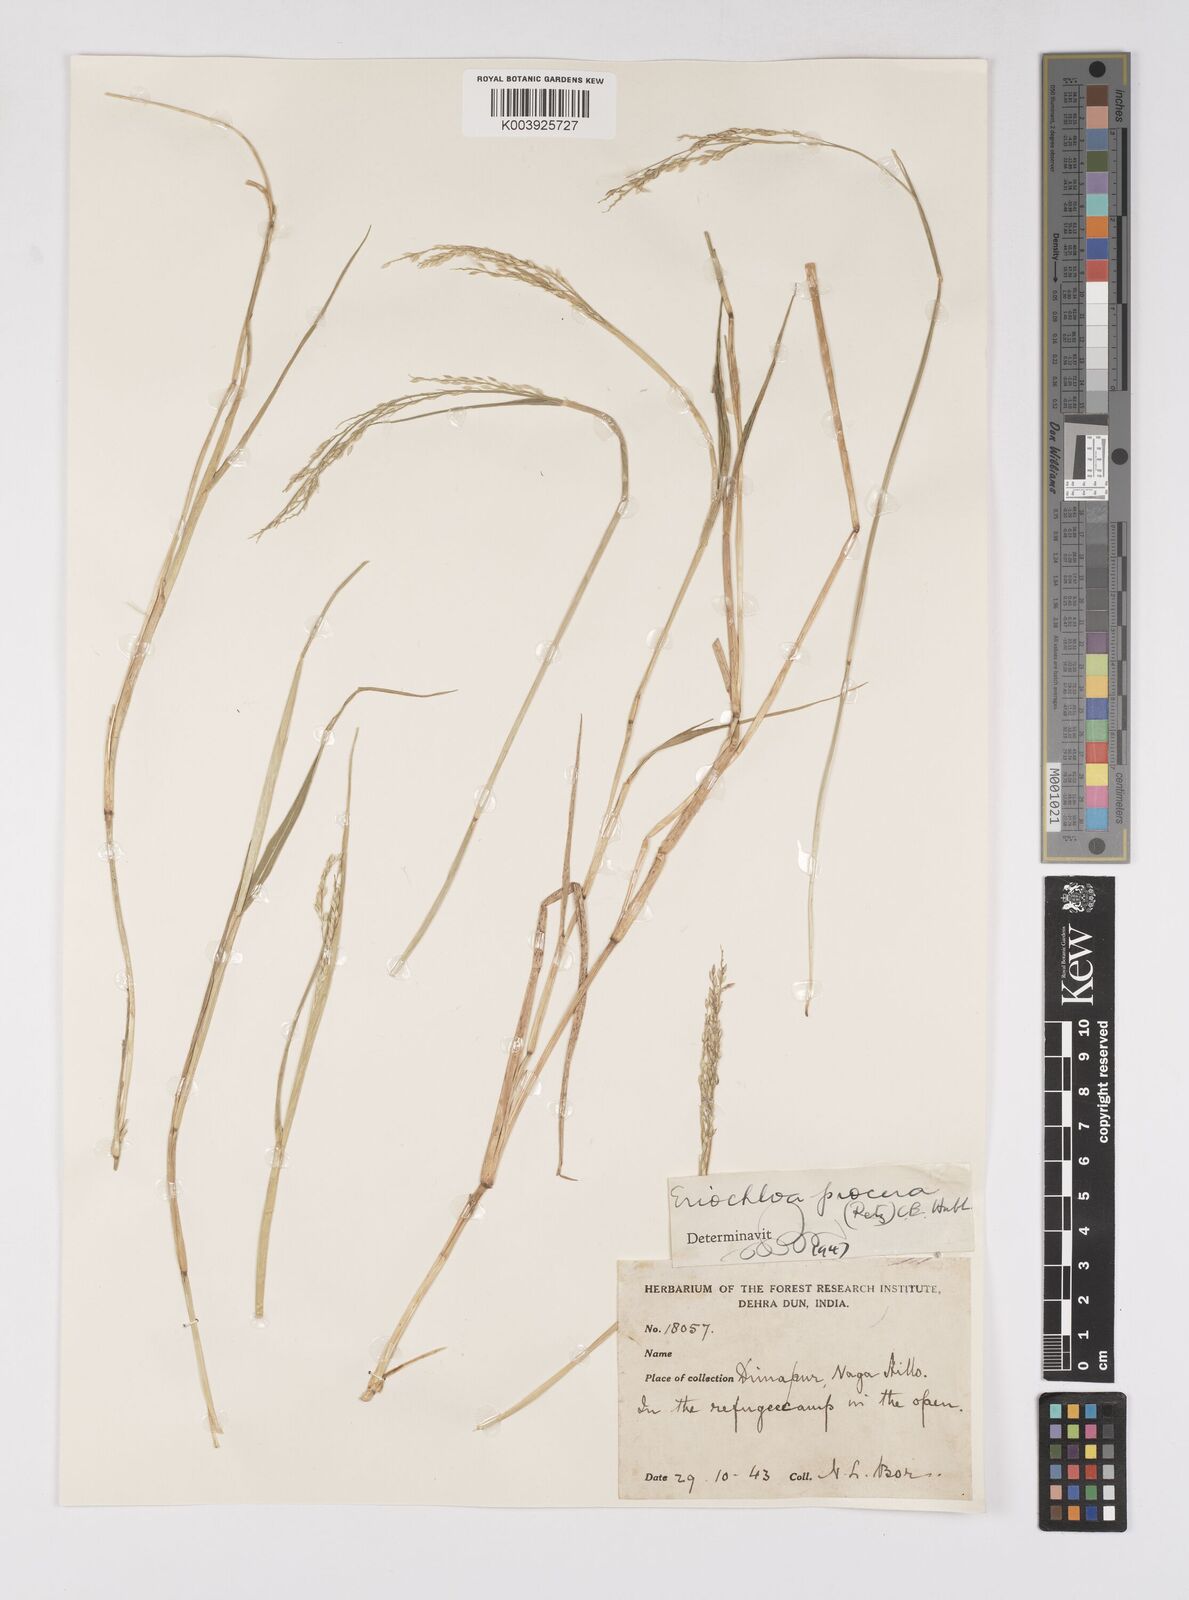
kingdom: Plantae
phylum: Tracheophyta
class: Liliopsida
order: Poales
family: Poaceae
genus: Eriochloa
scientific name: Eriochloa procera
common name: Spring grass
